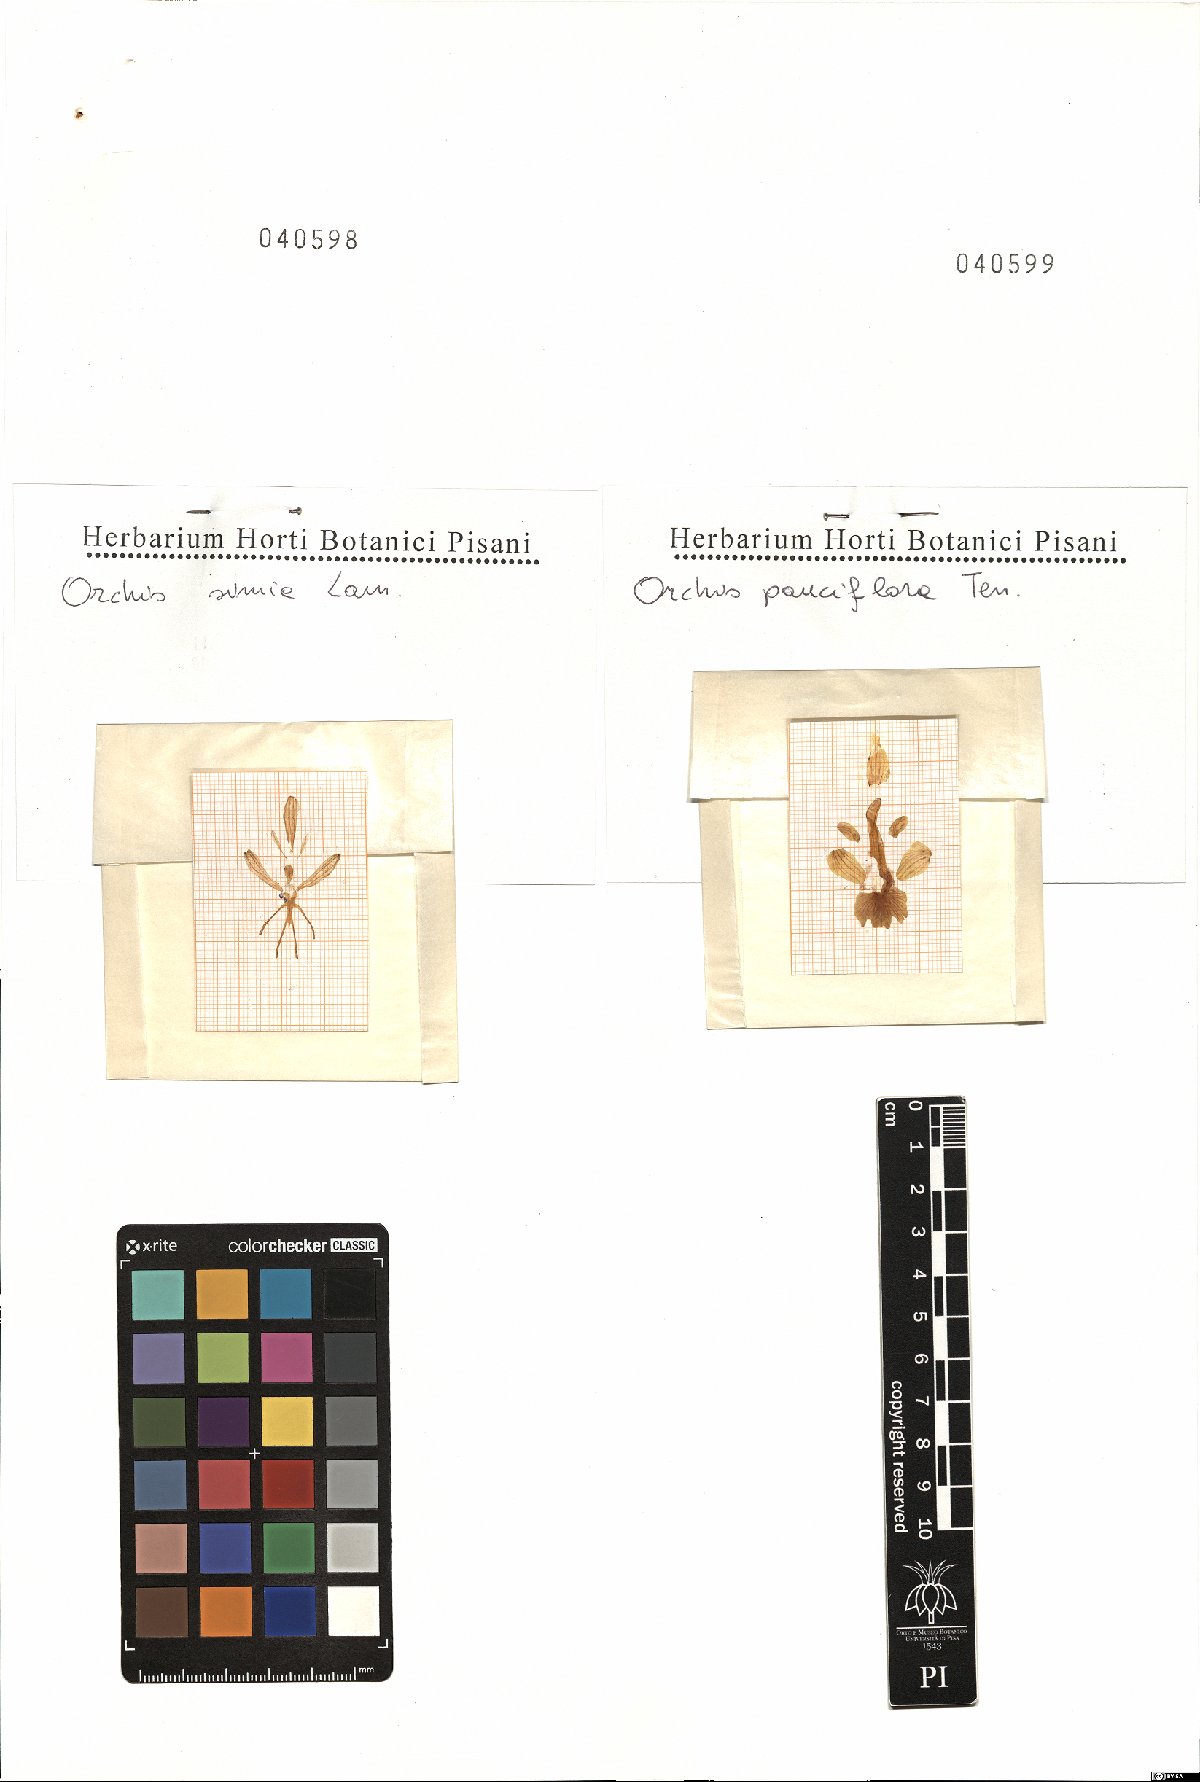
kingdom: Plantae
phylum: Tracheophyta
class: Liliopsida
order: Asparagales
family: Orchidaceae
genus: Orchis
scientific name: Orchis simia
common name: Monkey orchid
